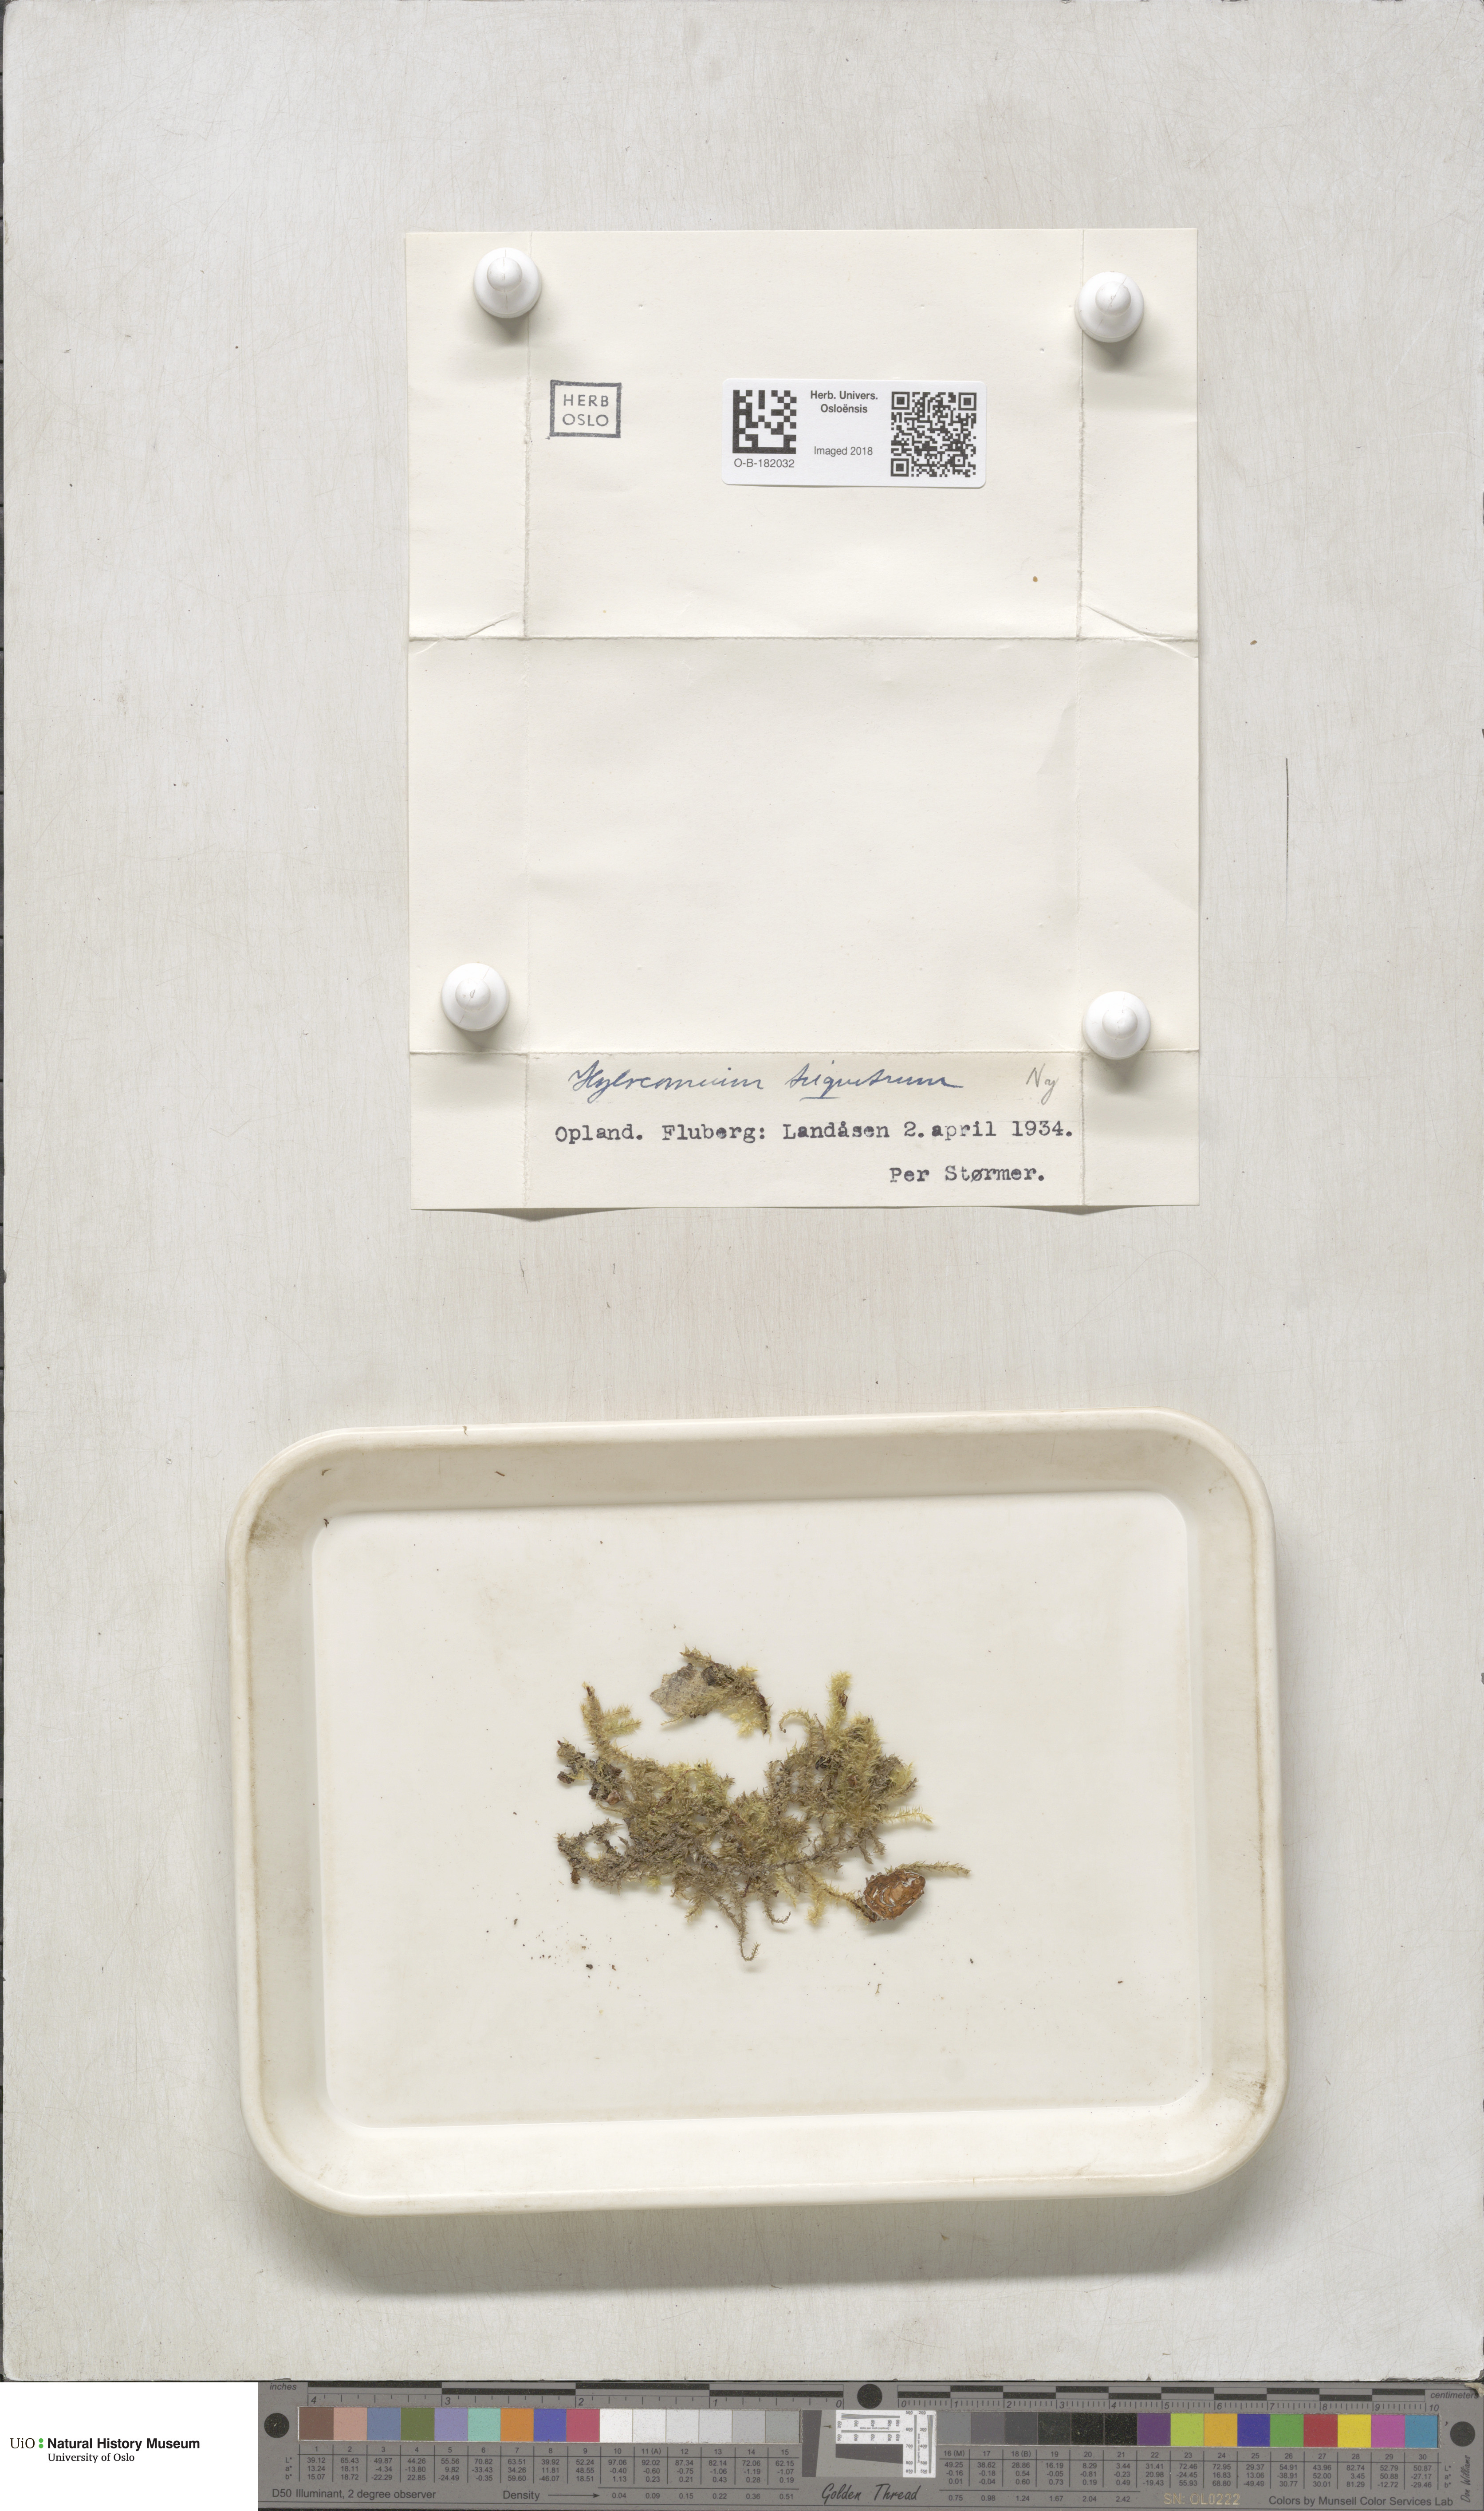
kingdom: Plantae
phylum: Bryophyta
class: Bryopsida
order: Hypnales
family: Hylocomiaceae
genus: Hylocomiadelphus
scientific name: Hylocomiadelphus triquetrus
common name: Rough goose neck moss
